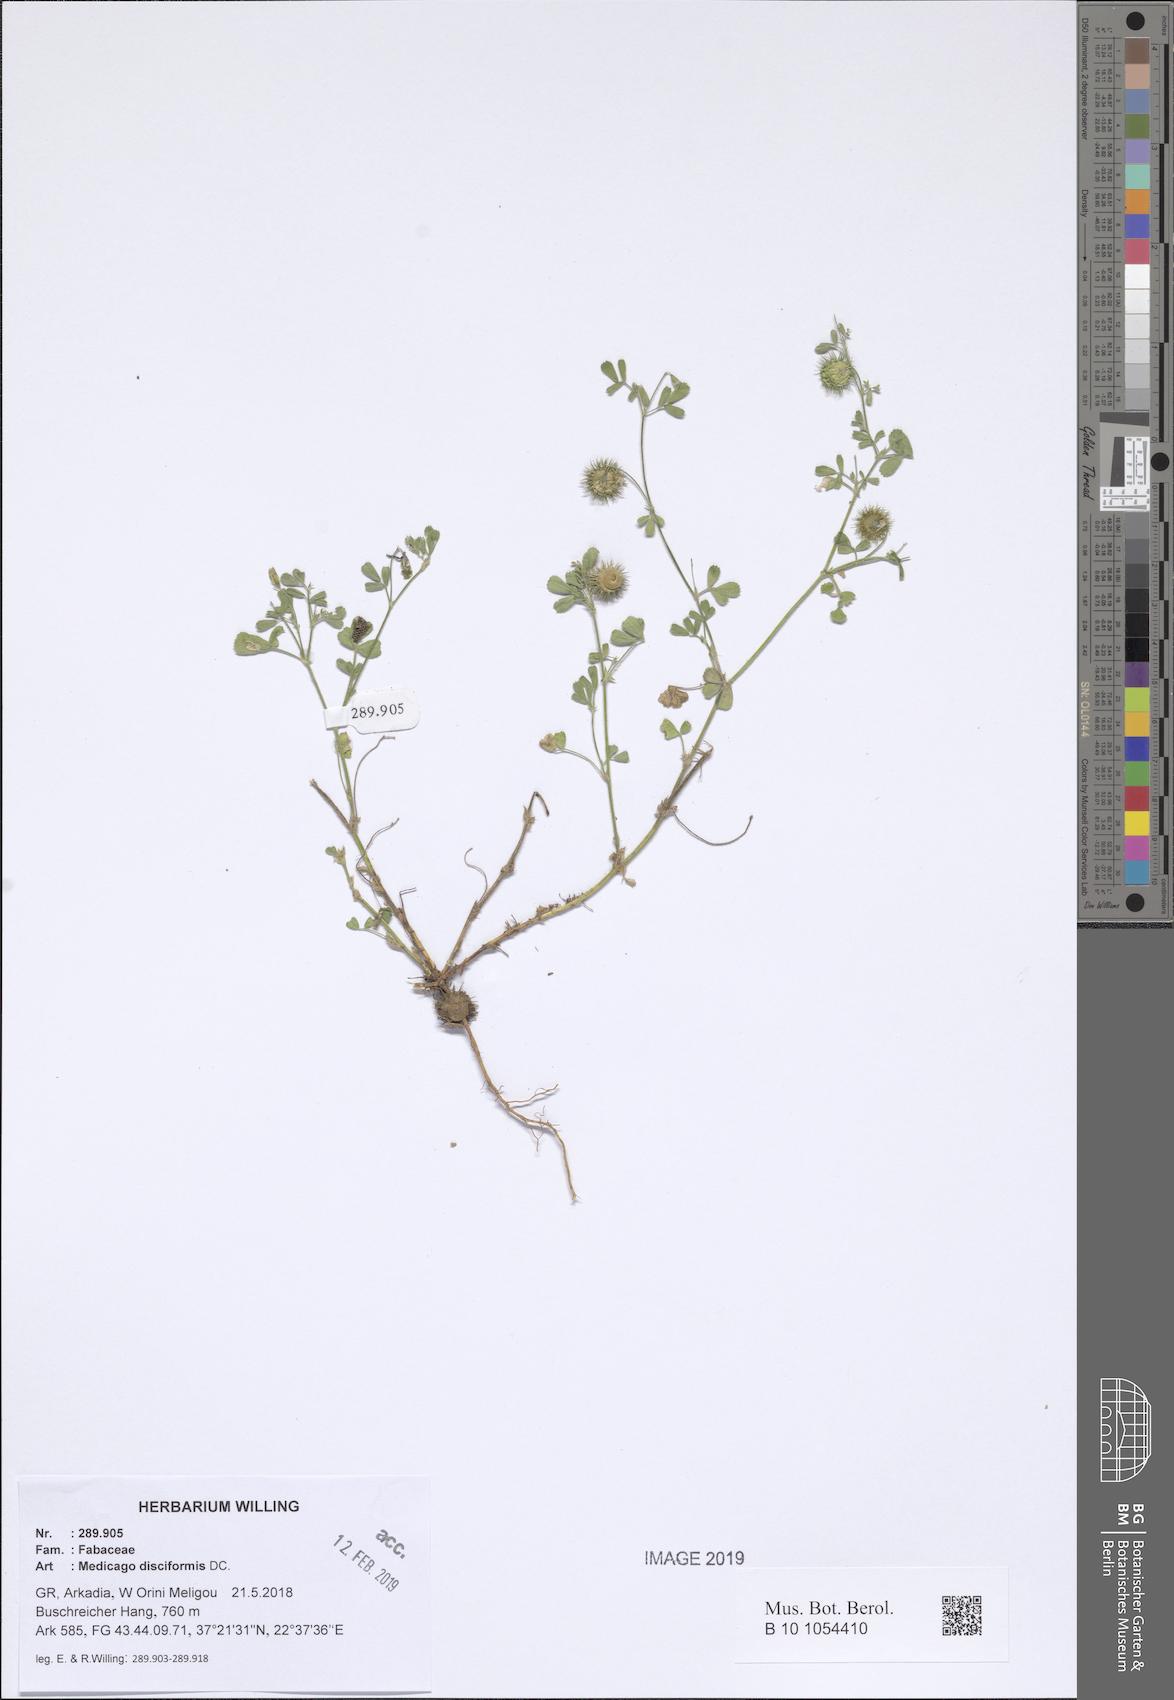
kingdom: Plantae
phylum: Tracheophyta
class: Magnoliopsida
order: Fabales
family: Fabaceae
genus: Medicago
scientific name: Medicago disciformis
